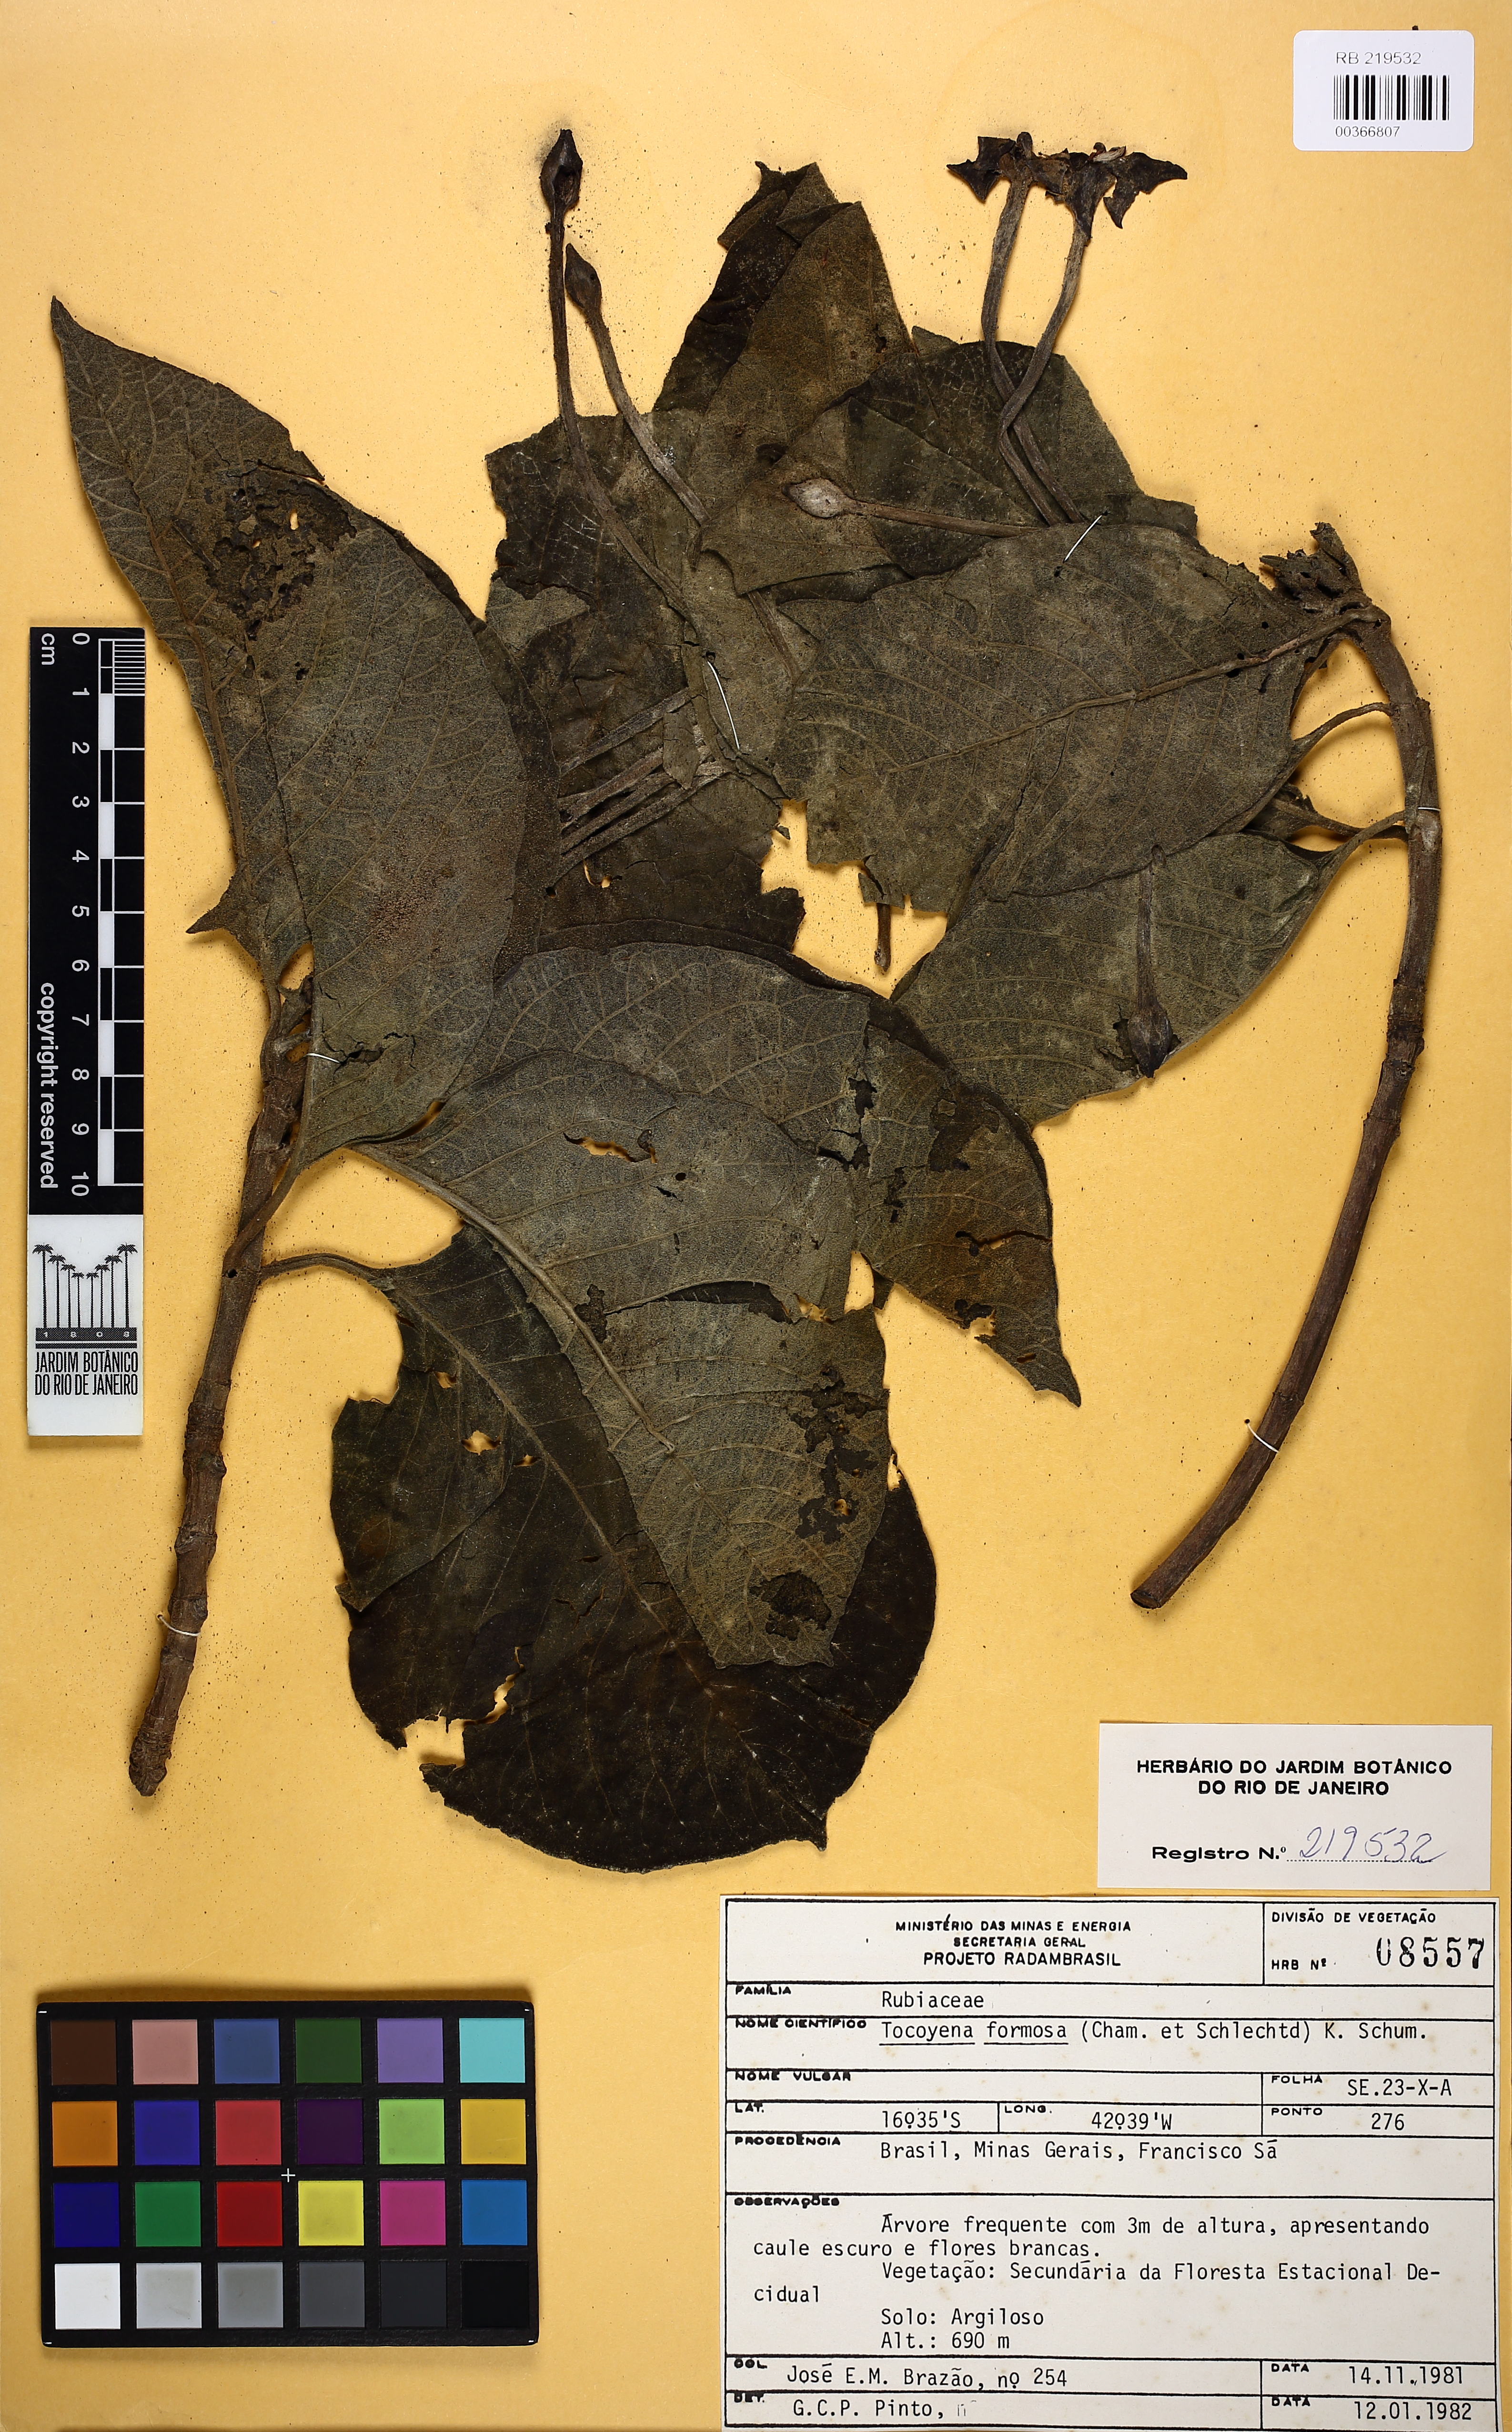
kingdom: Plantae
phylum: Tracheophyta
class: Magnoliopsida
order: Gentianales
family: Rubiaceae
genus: Tocoyena
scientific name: Tocoyena formosa
